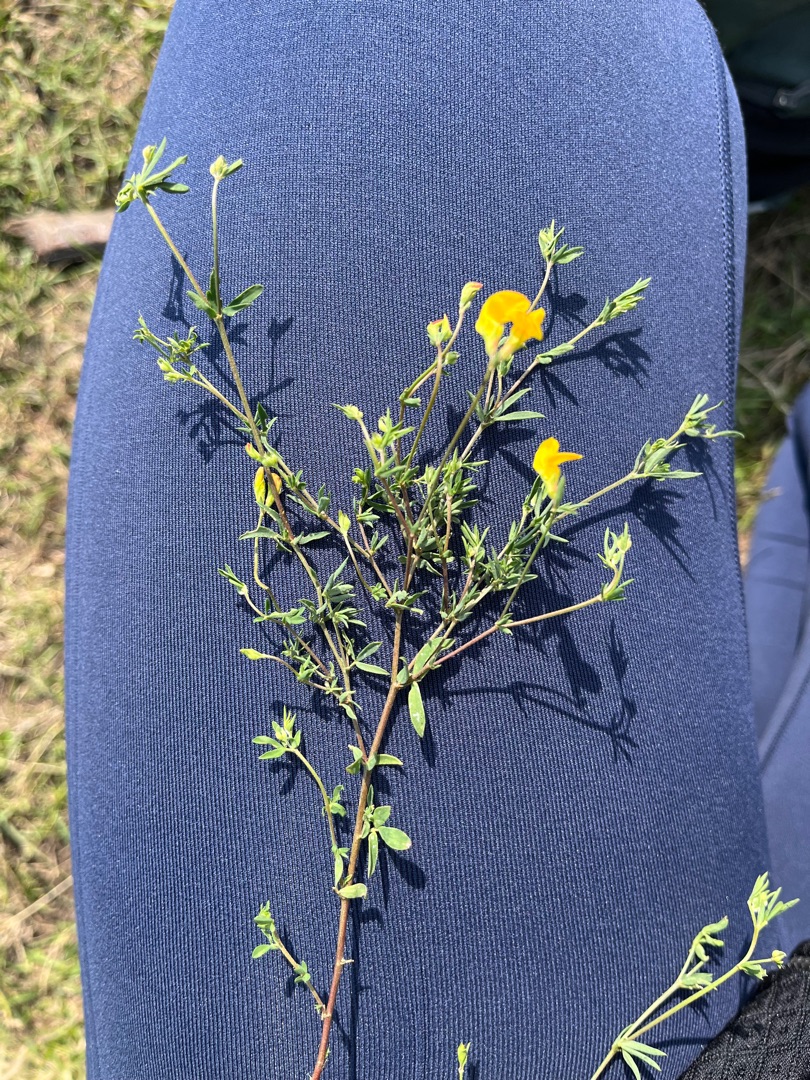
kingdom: Plantae
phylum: Tracheophyta
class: Magnoliopsida
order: Fabales
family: Fabaceae
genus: Lotus
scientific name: Lotus corniculatus
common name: Almindelig kællingetand
